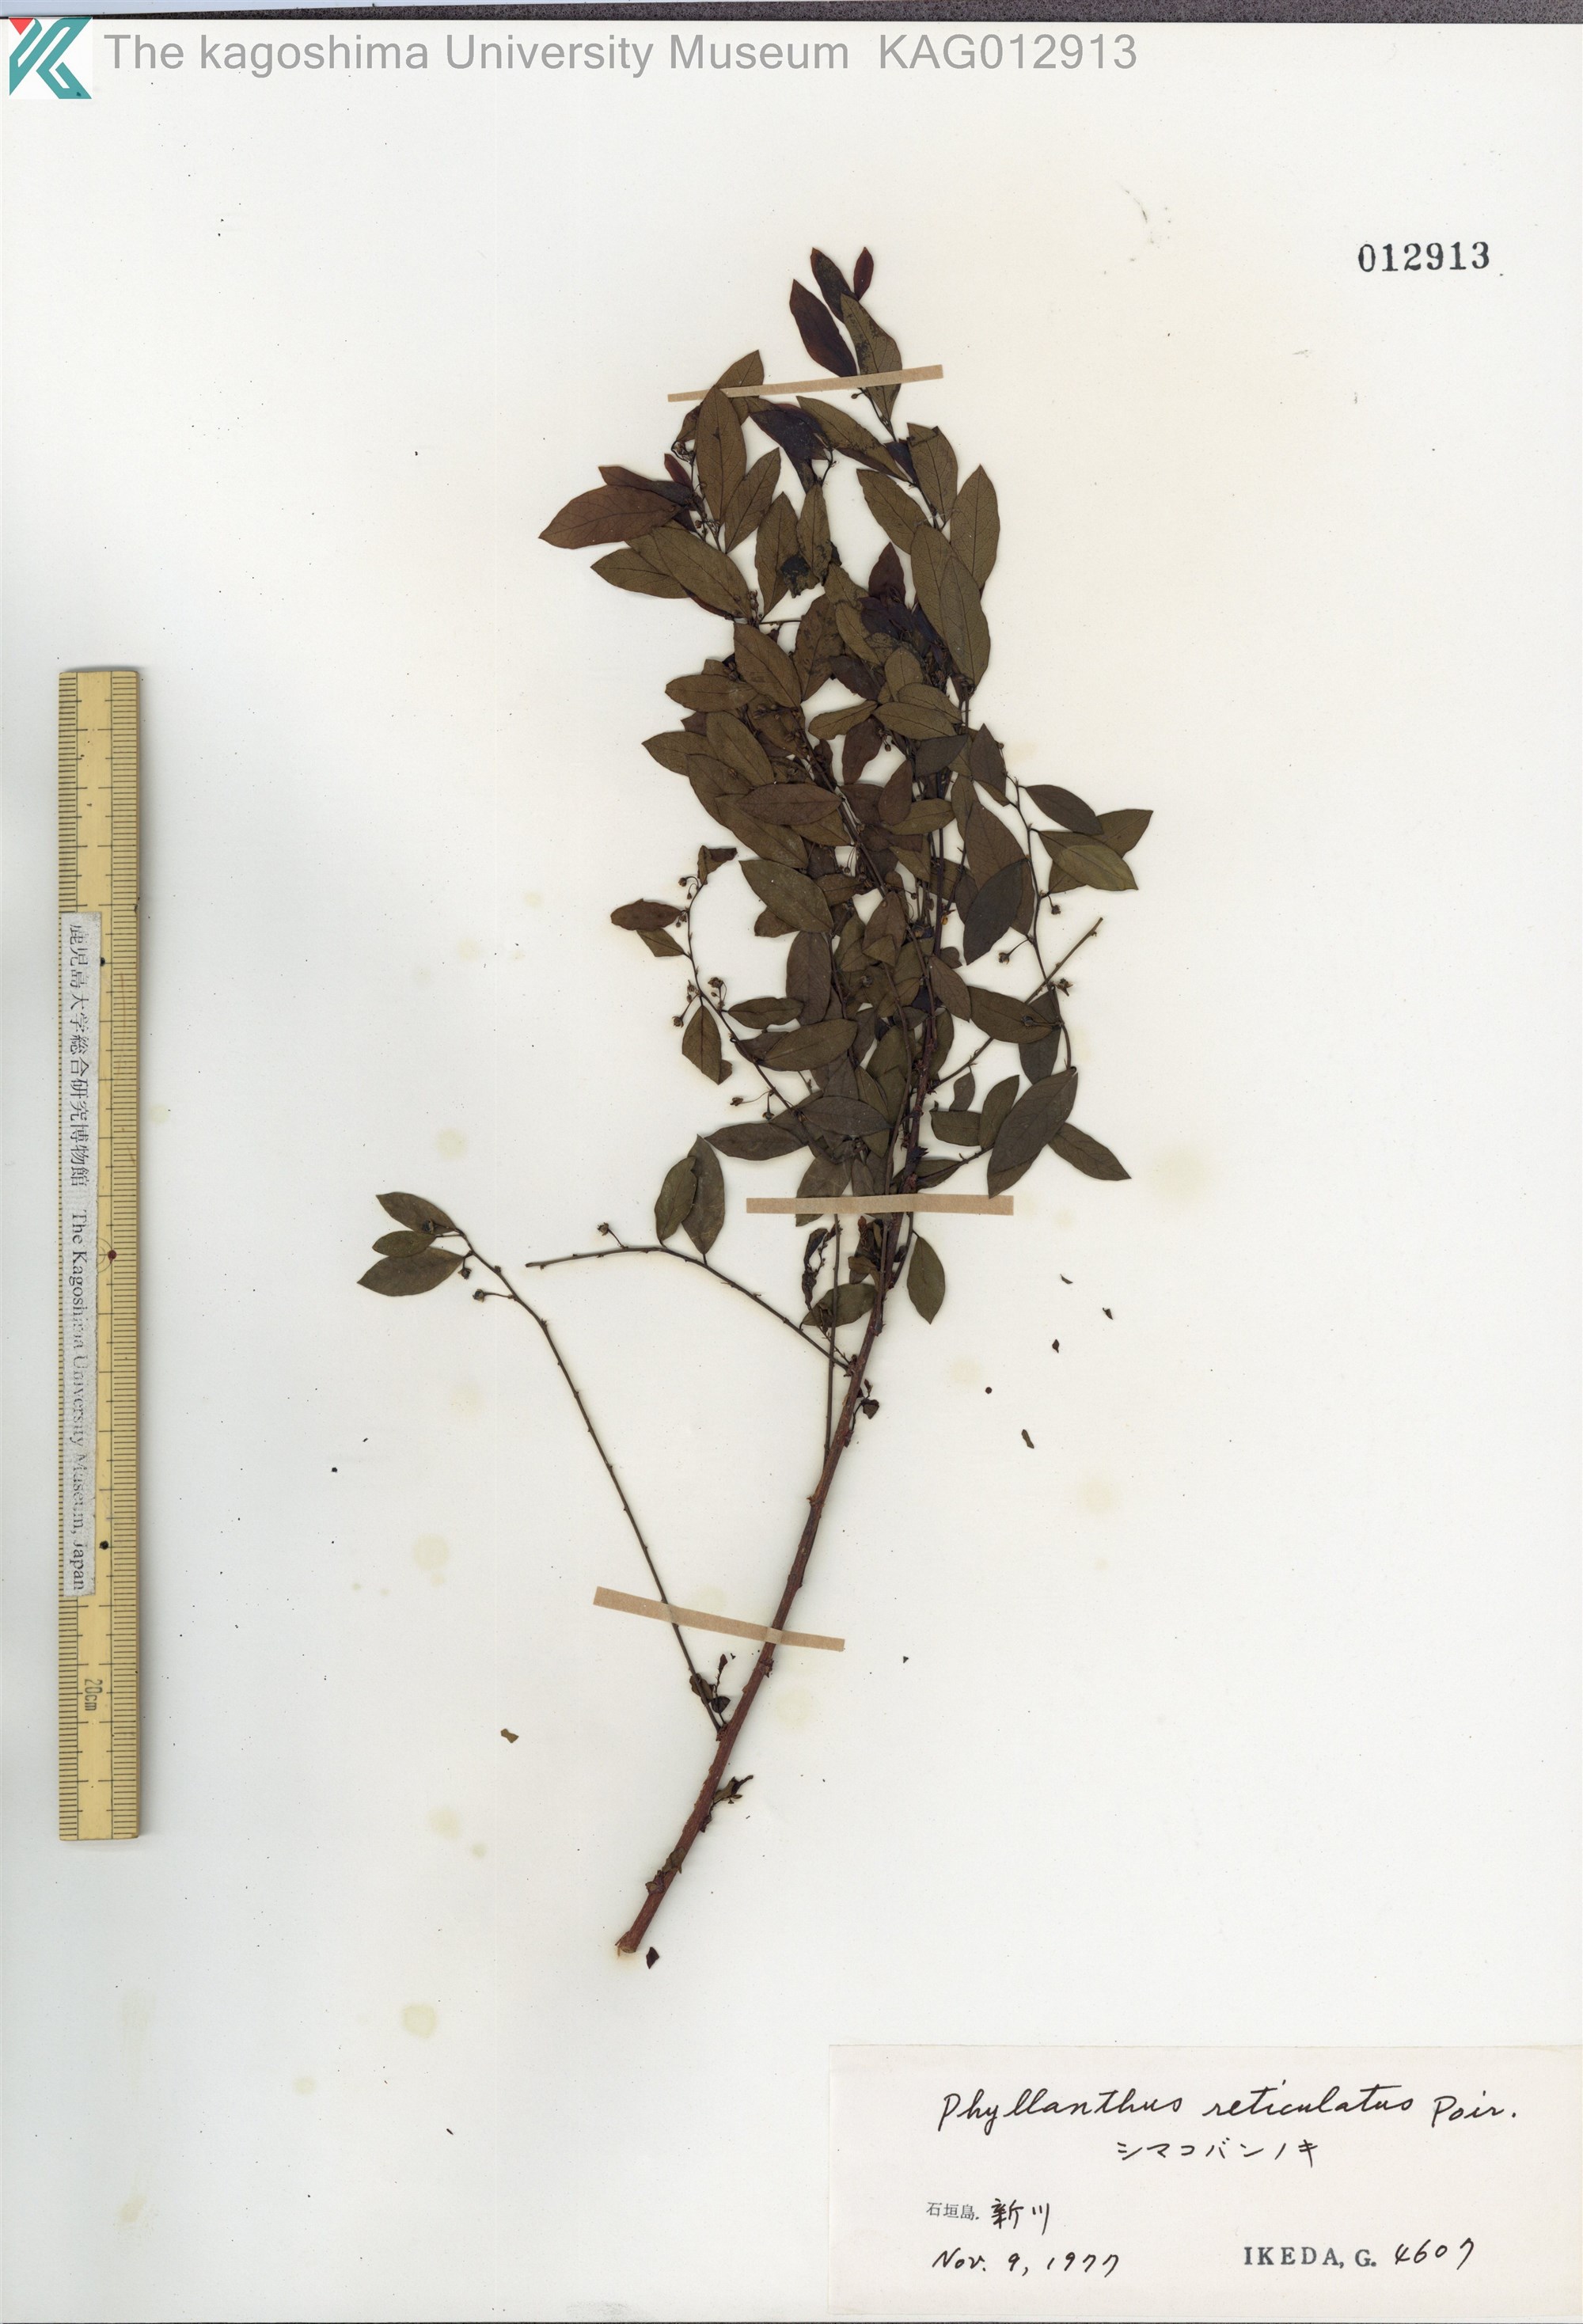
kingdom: Plantae
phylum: Tracheophyta
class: Magnoliopsida
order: Malpighiales
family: Phyllanthaceae
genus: Phyllanthus
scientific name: Phyllanthus reticulatus
